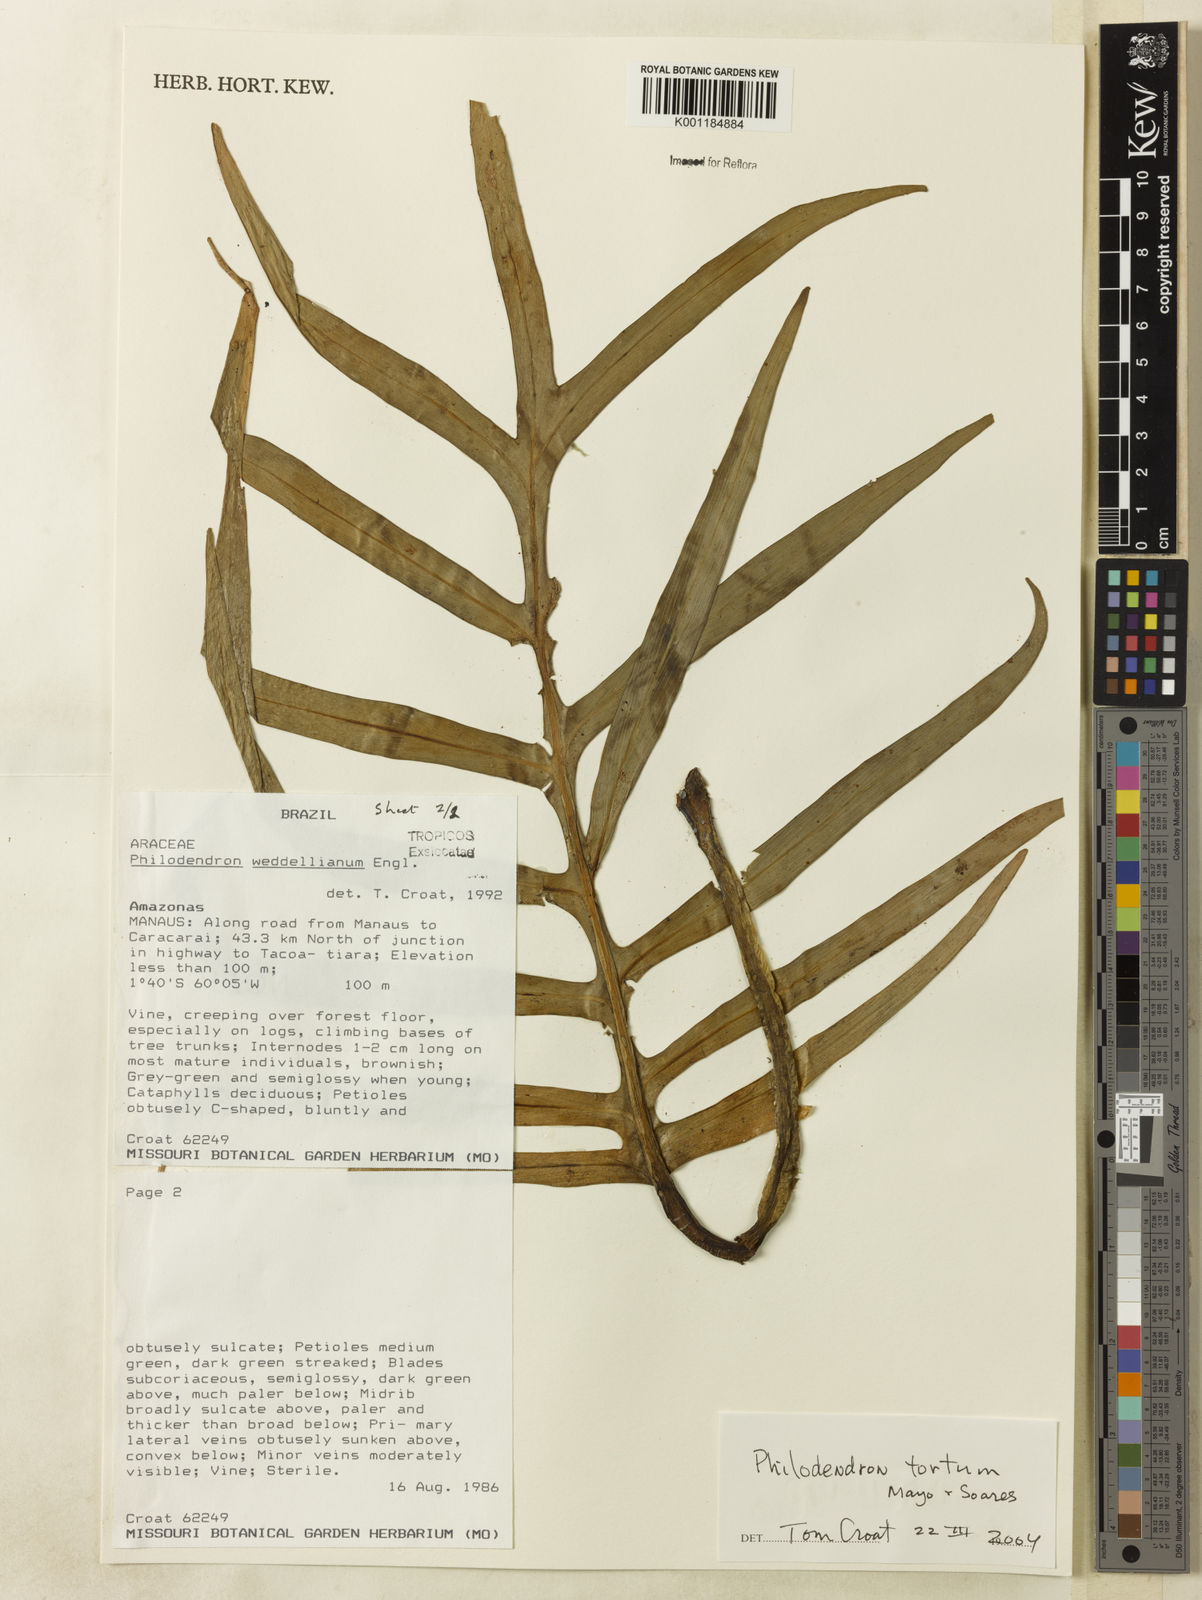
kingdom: Plantae
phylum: Tracheophyta
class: Liliopsida
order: Alismatales
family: Araceae
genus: Philodendron
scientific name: Philodendron tortum
